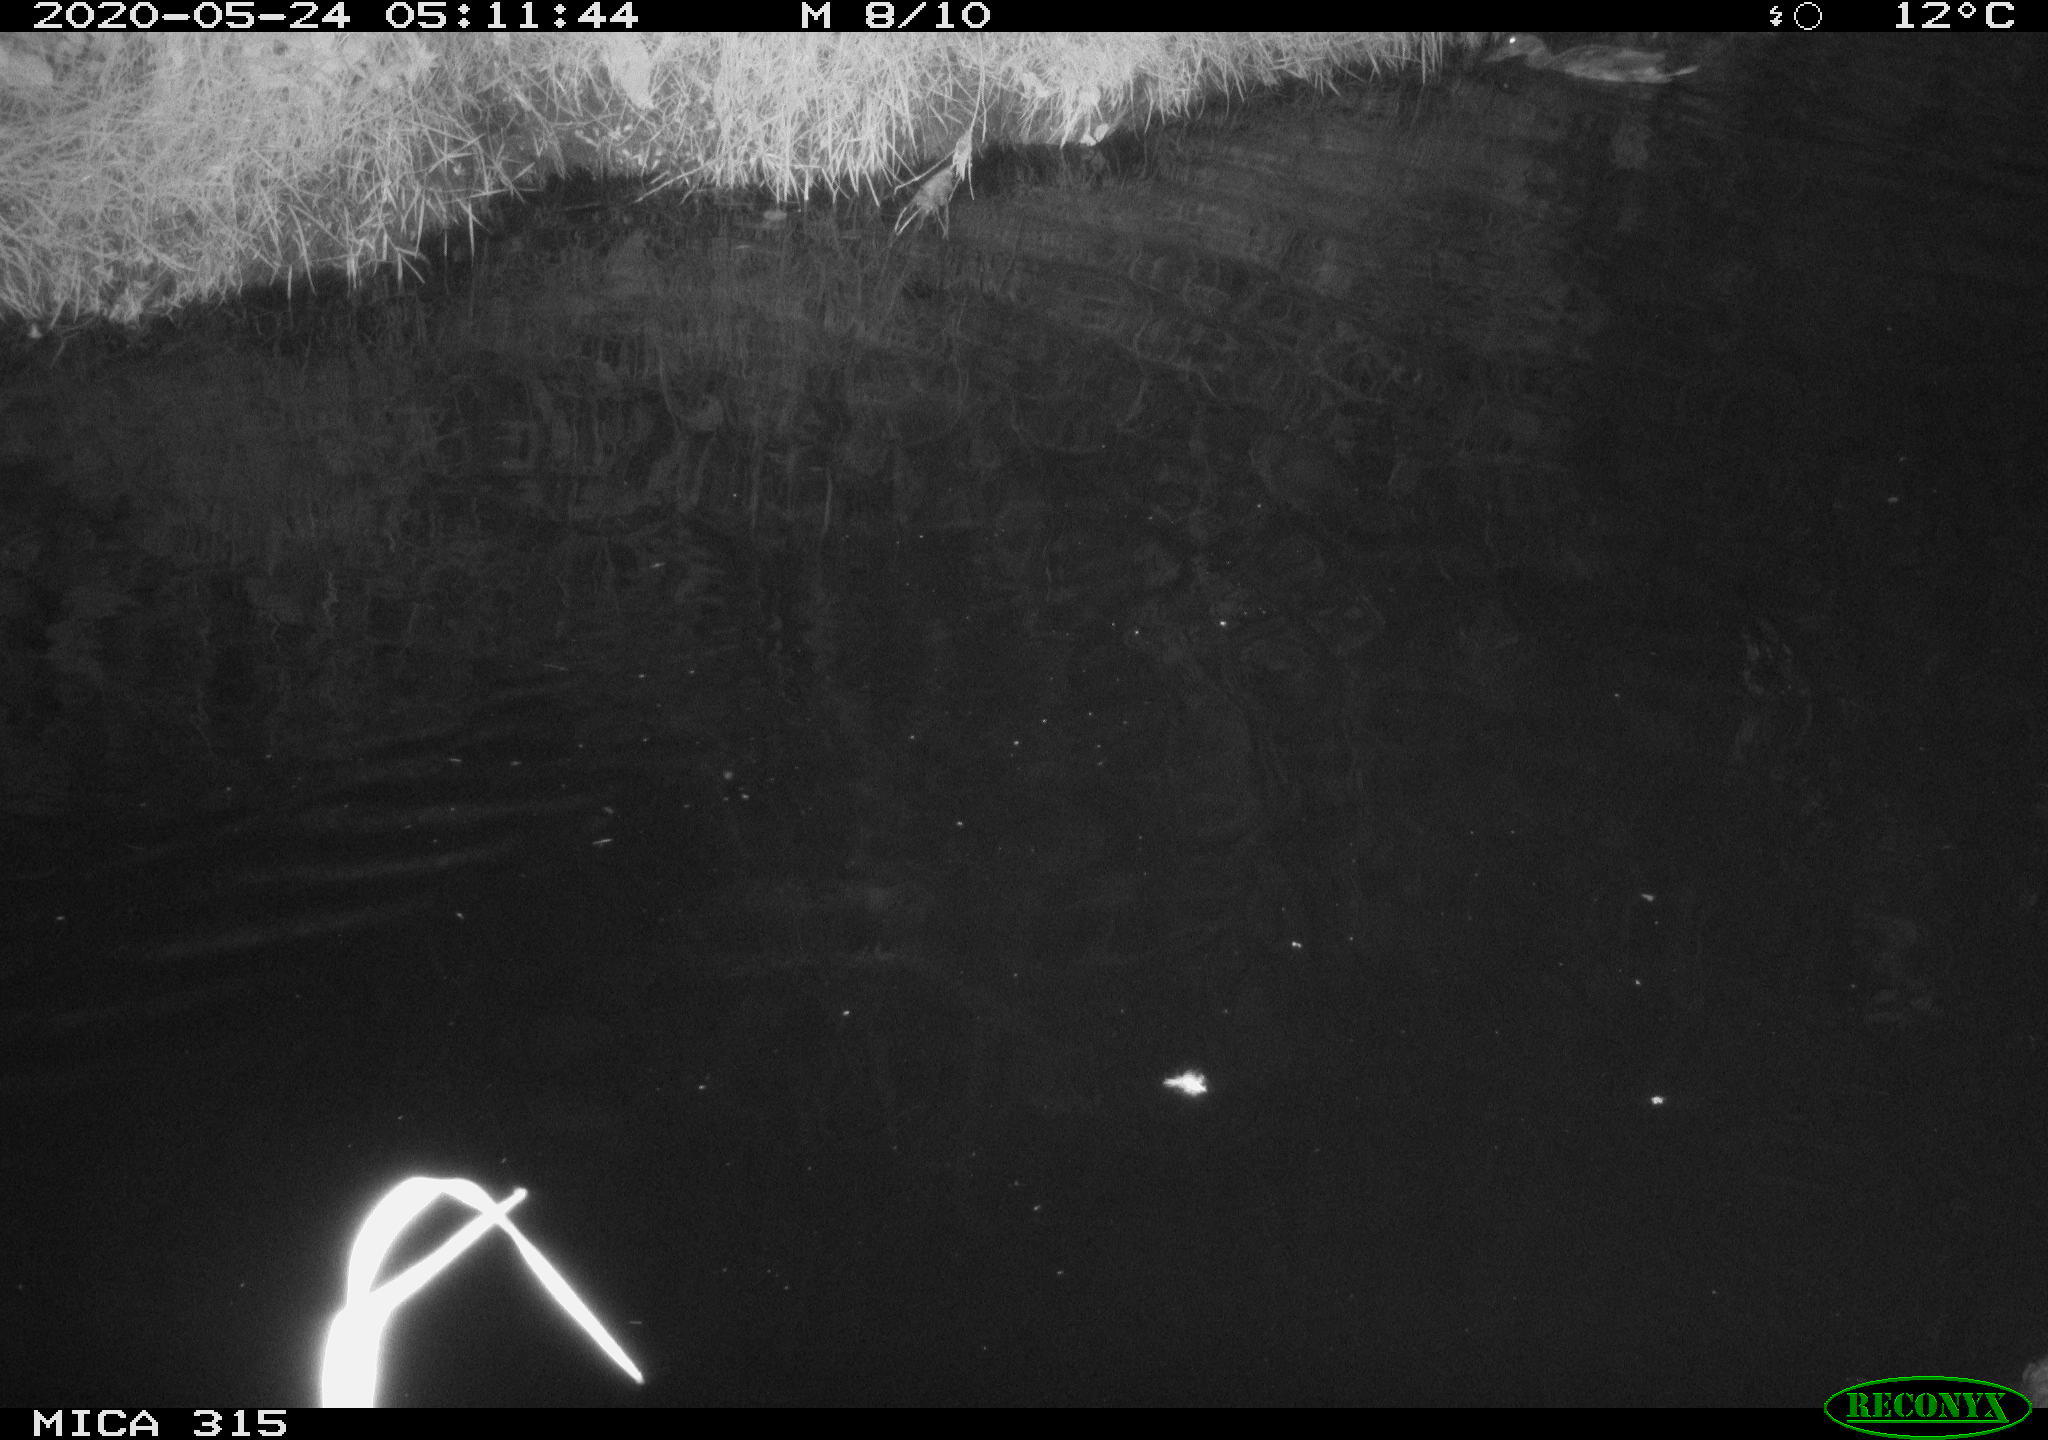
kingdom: Animalia
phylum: Chordata
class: Aves
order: Anseriformes
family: Anatidae
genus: Anas
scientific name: Anas platyrhynchos
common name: Mallard
